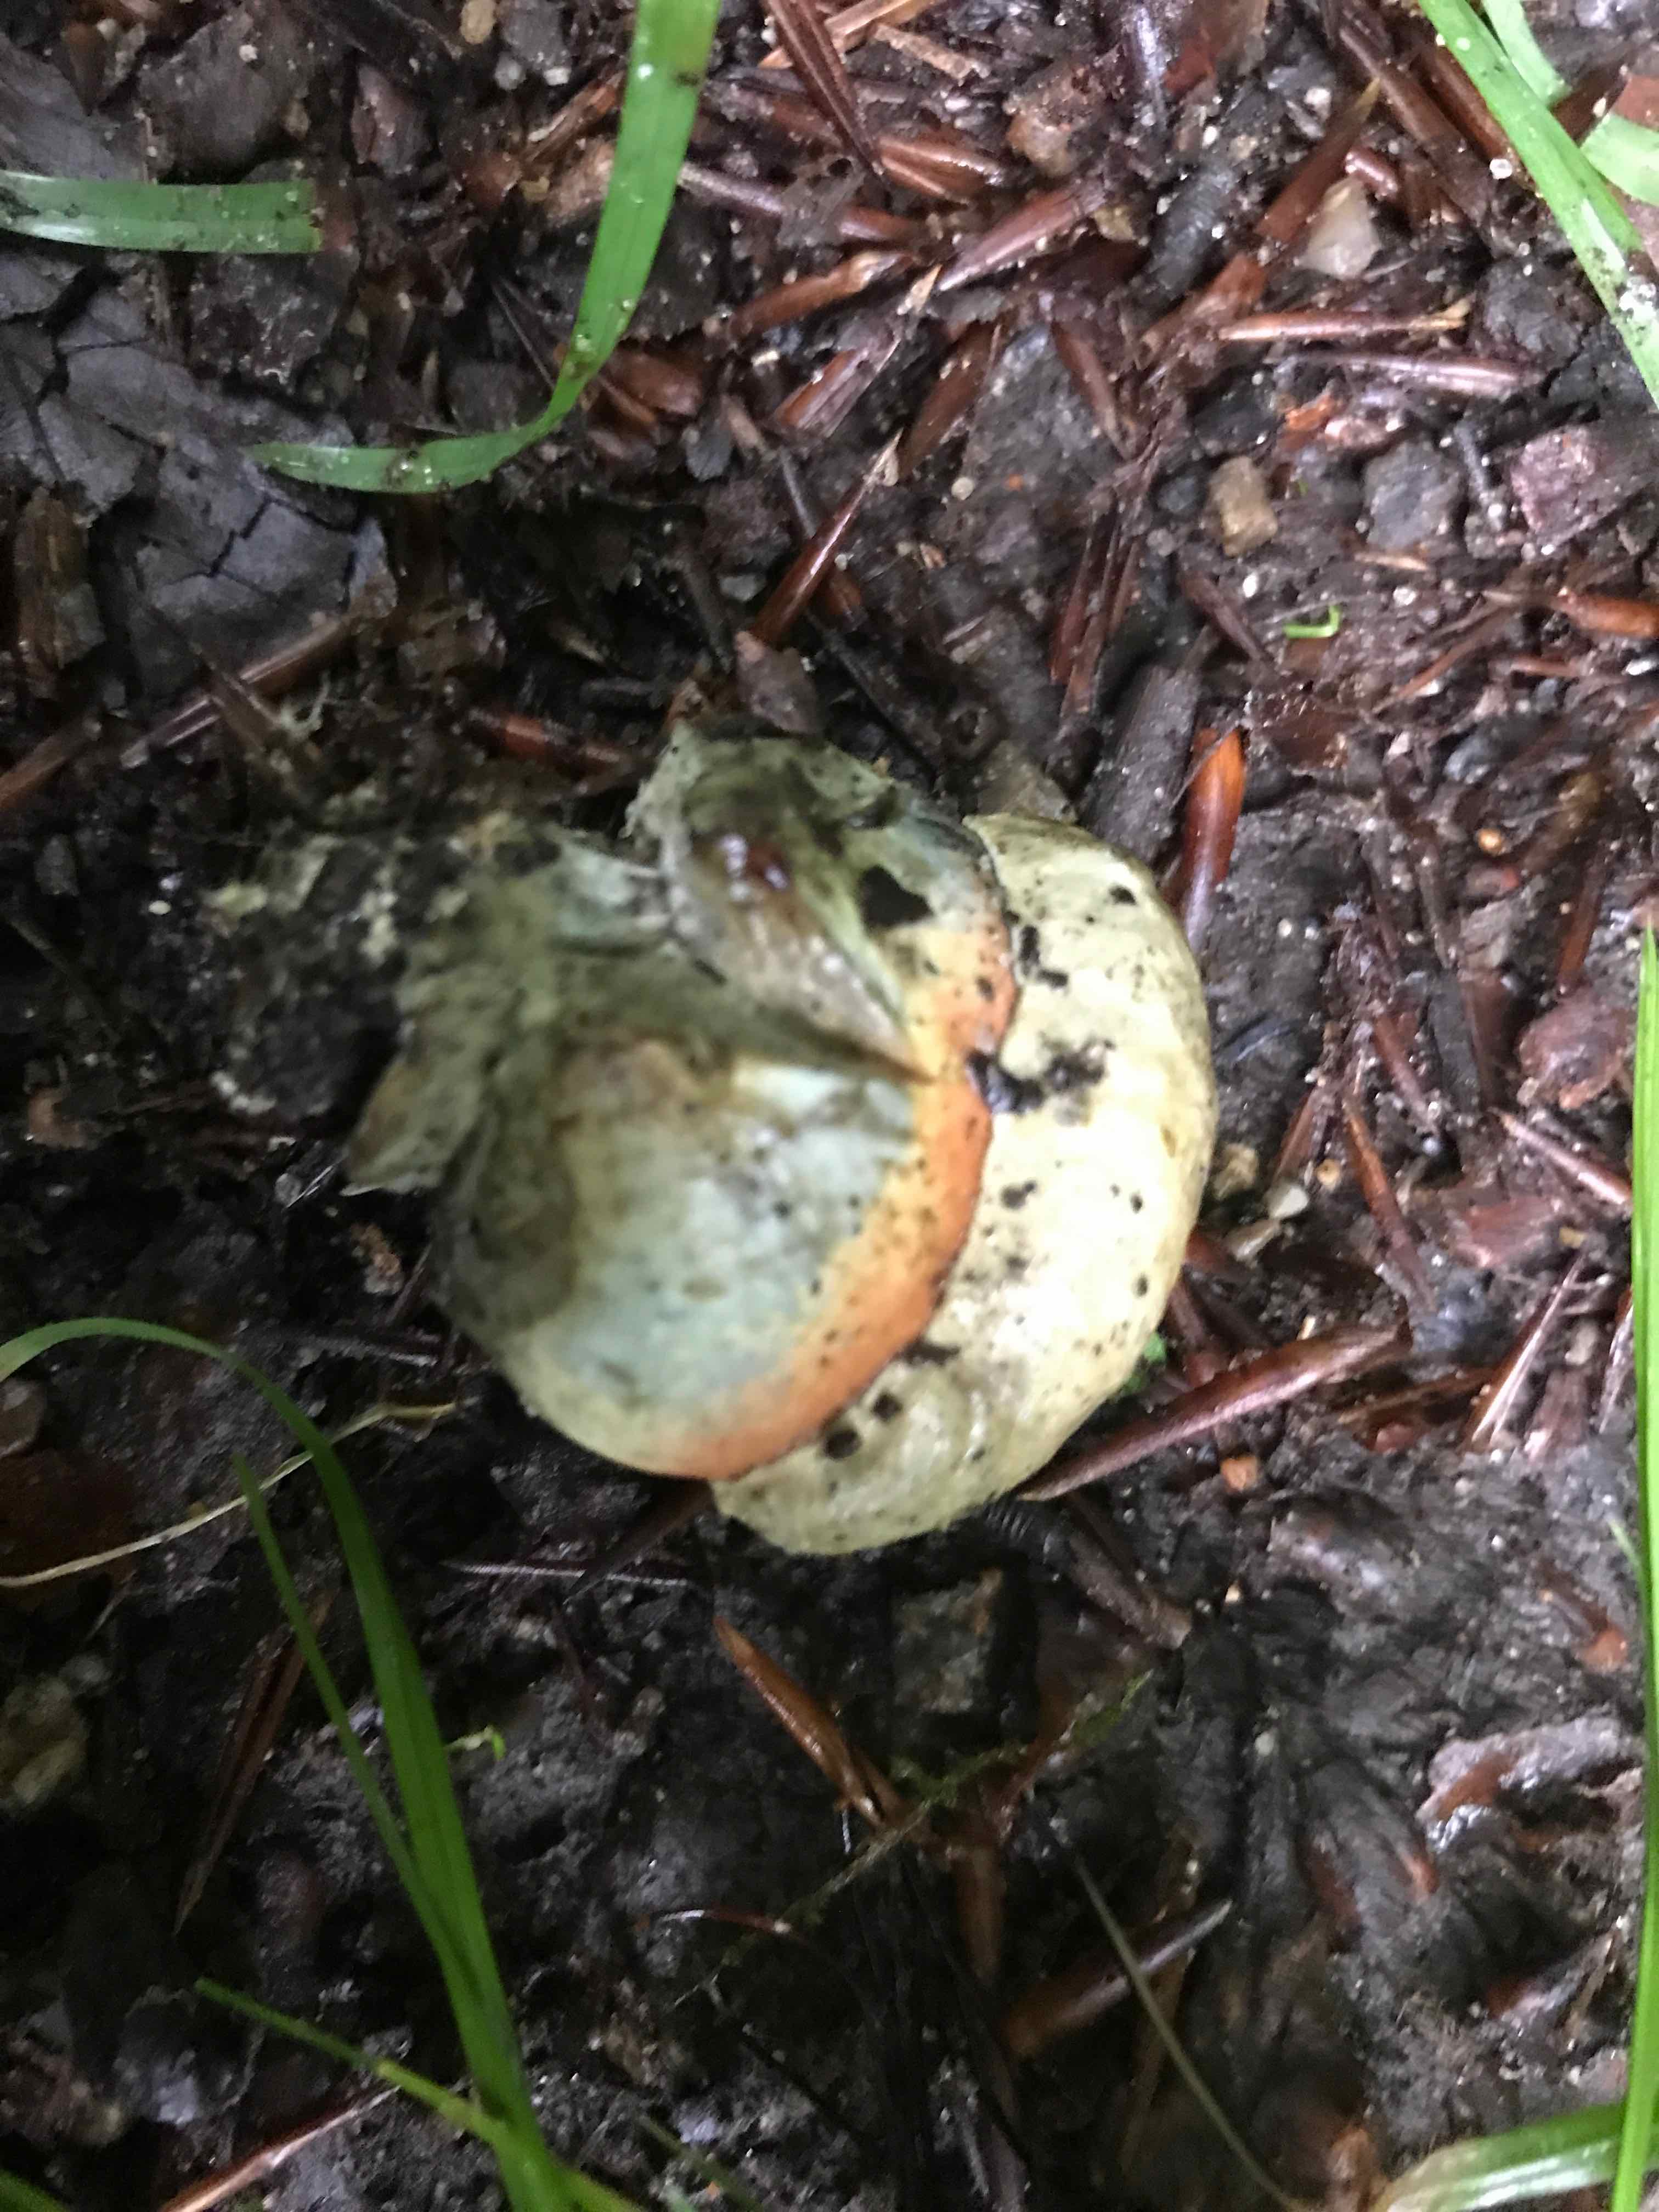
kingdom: Fungi
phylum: Basidiomycota
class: Agaricomycetes
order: Boletales
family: Boletaceae
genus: Neoboletus
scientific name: Neoboletus erythropus
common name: punktstokket indigorørhat
